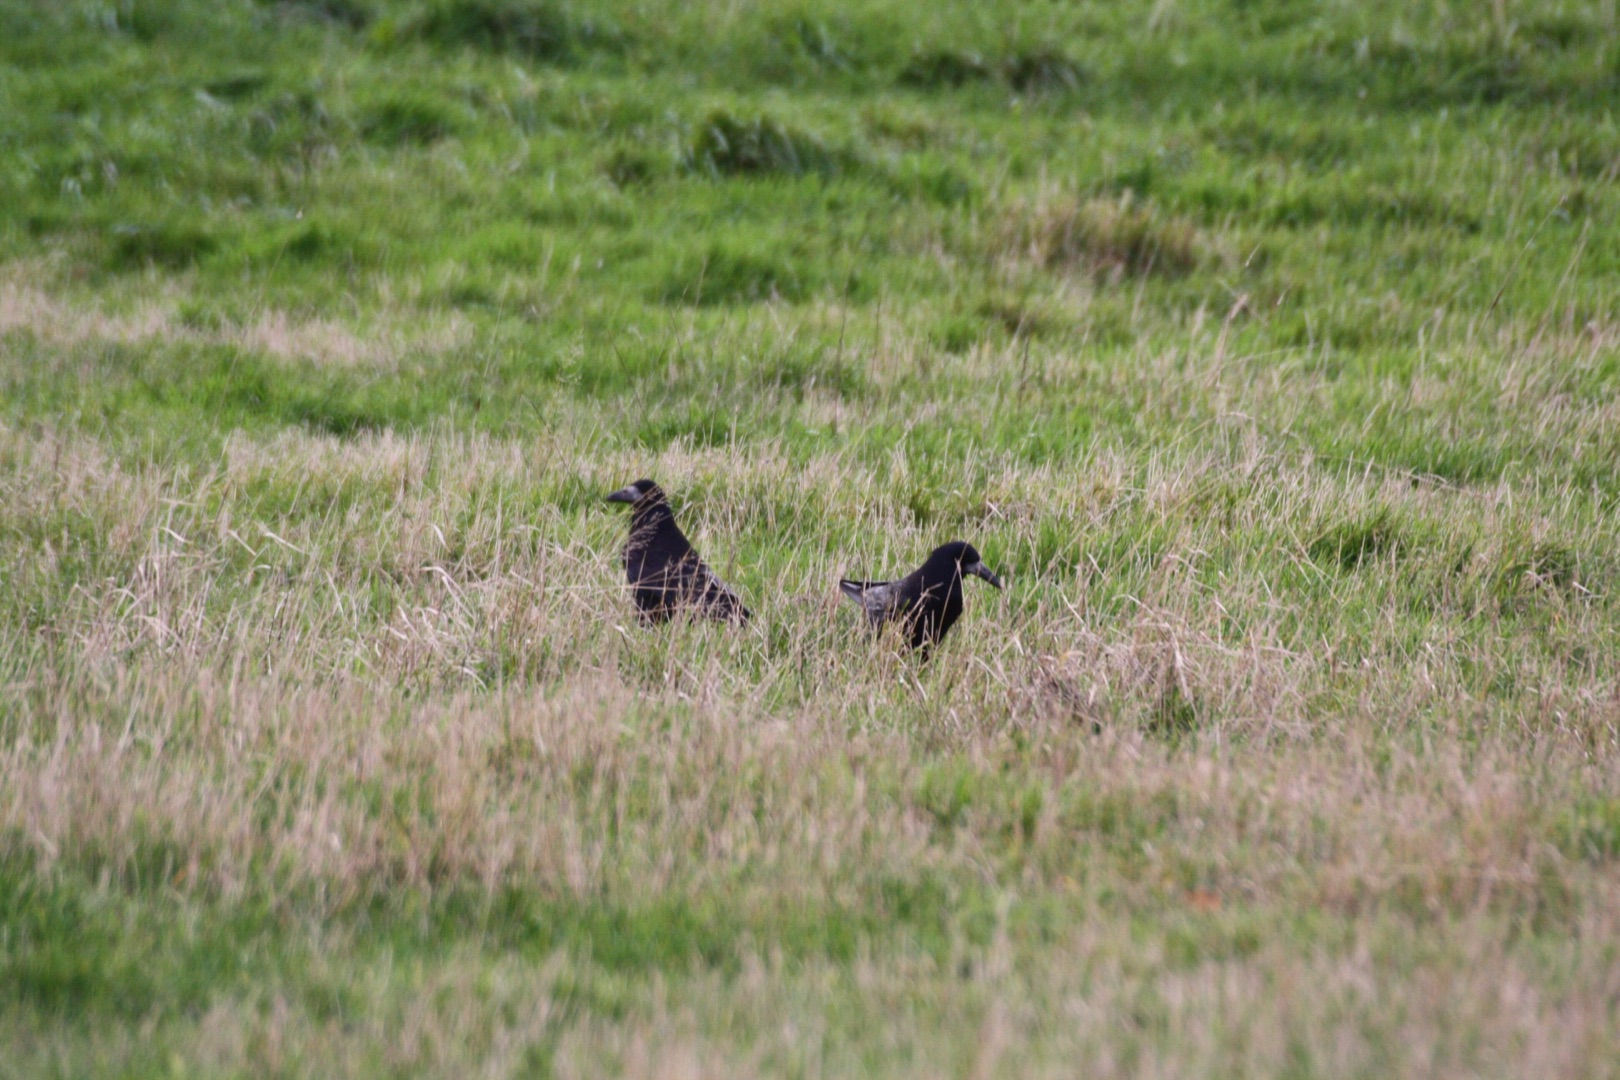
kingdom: Animalia
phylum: Chordata
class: Aves
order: Passeriformes
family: Corvidae
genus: Corvus
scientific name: Corvus frugilegus
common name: Råge
